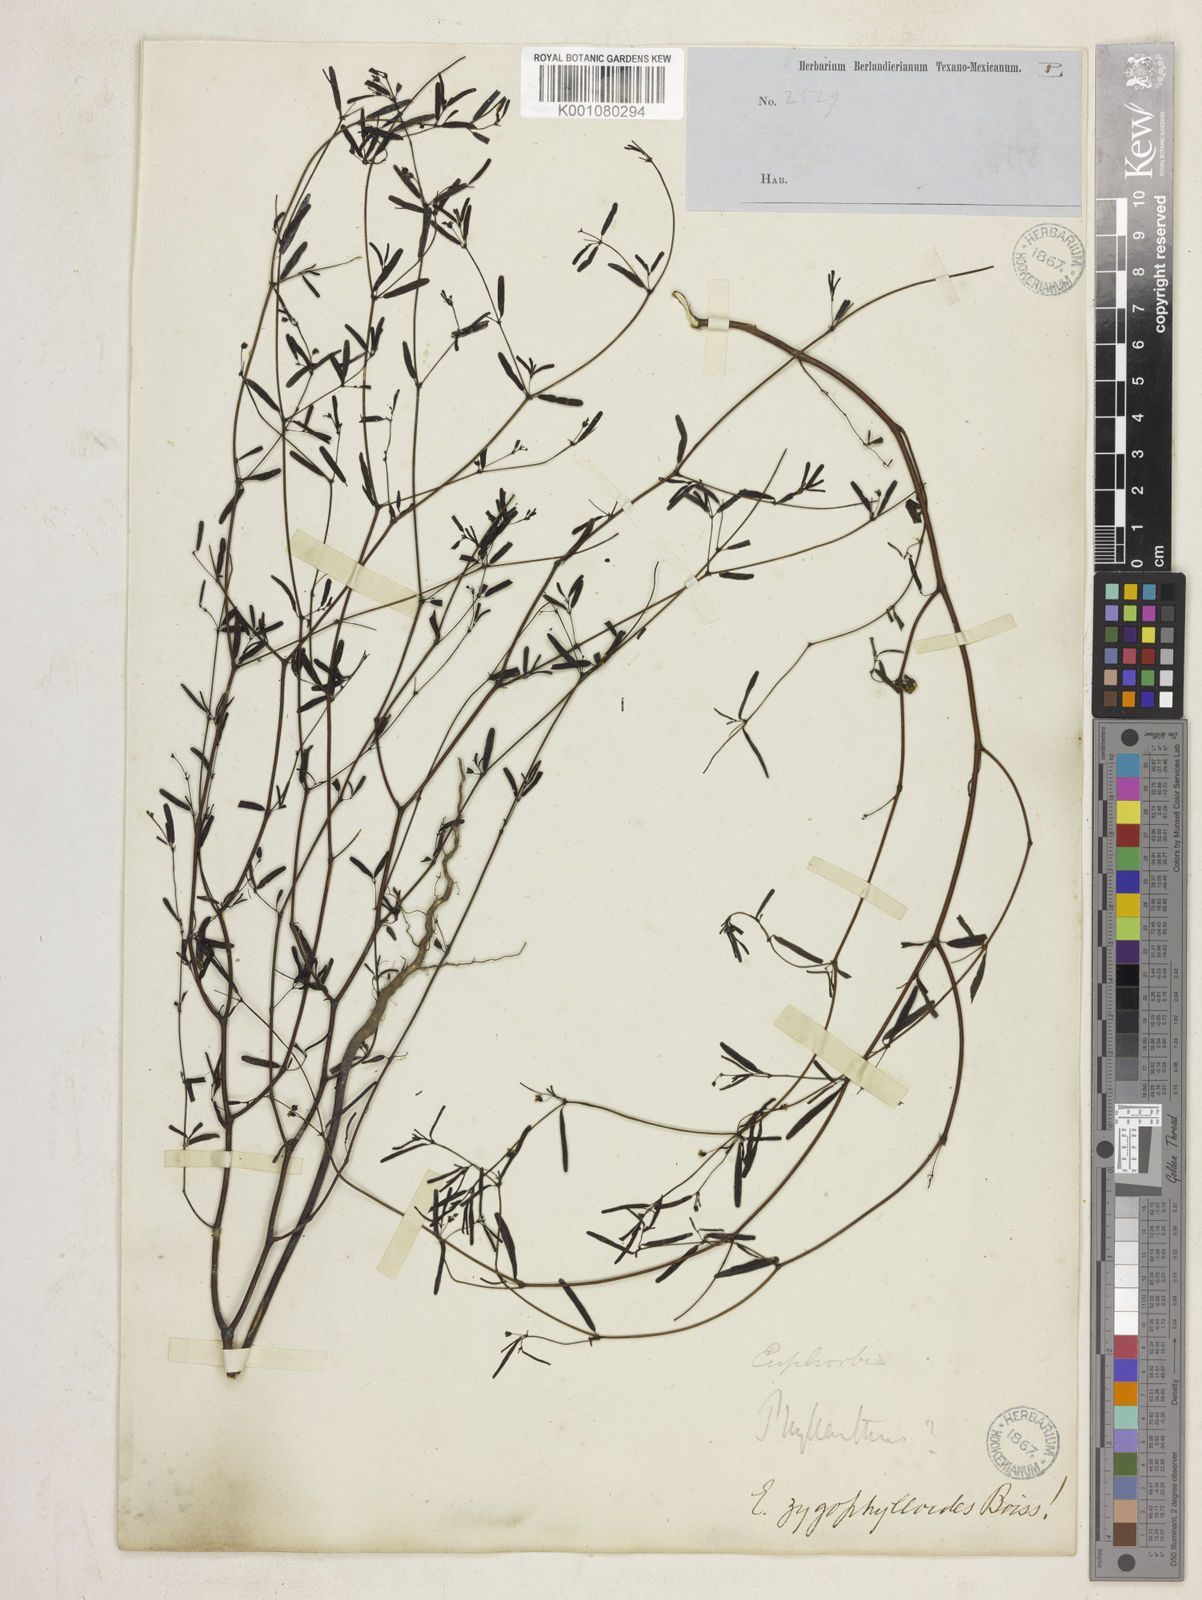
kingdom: Plantae
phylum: Tracheophyta
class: Magnoliopsida
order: Malpighiales
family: Euphorbiaceae
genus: Euphorbia
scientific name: Euphorbia missurica
